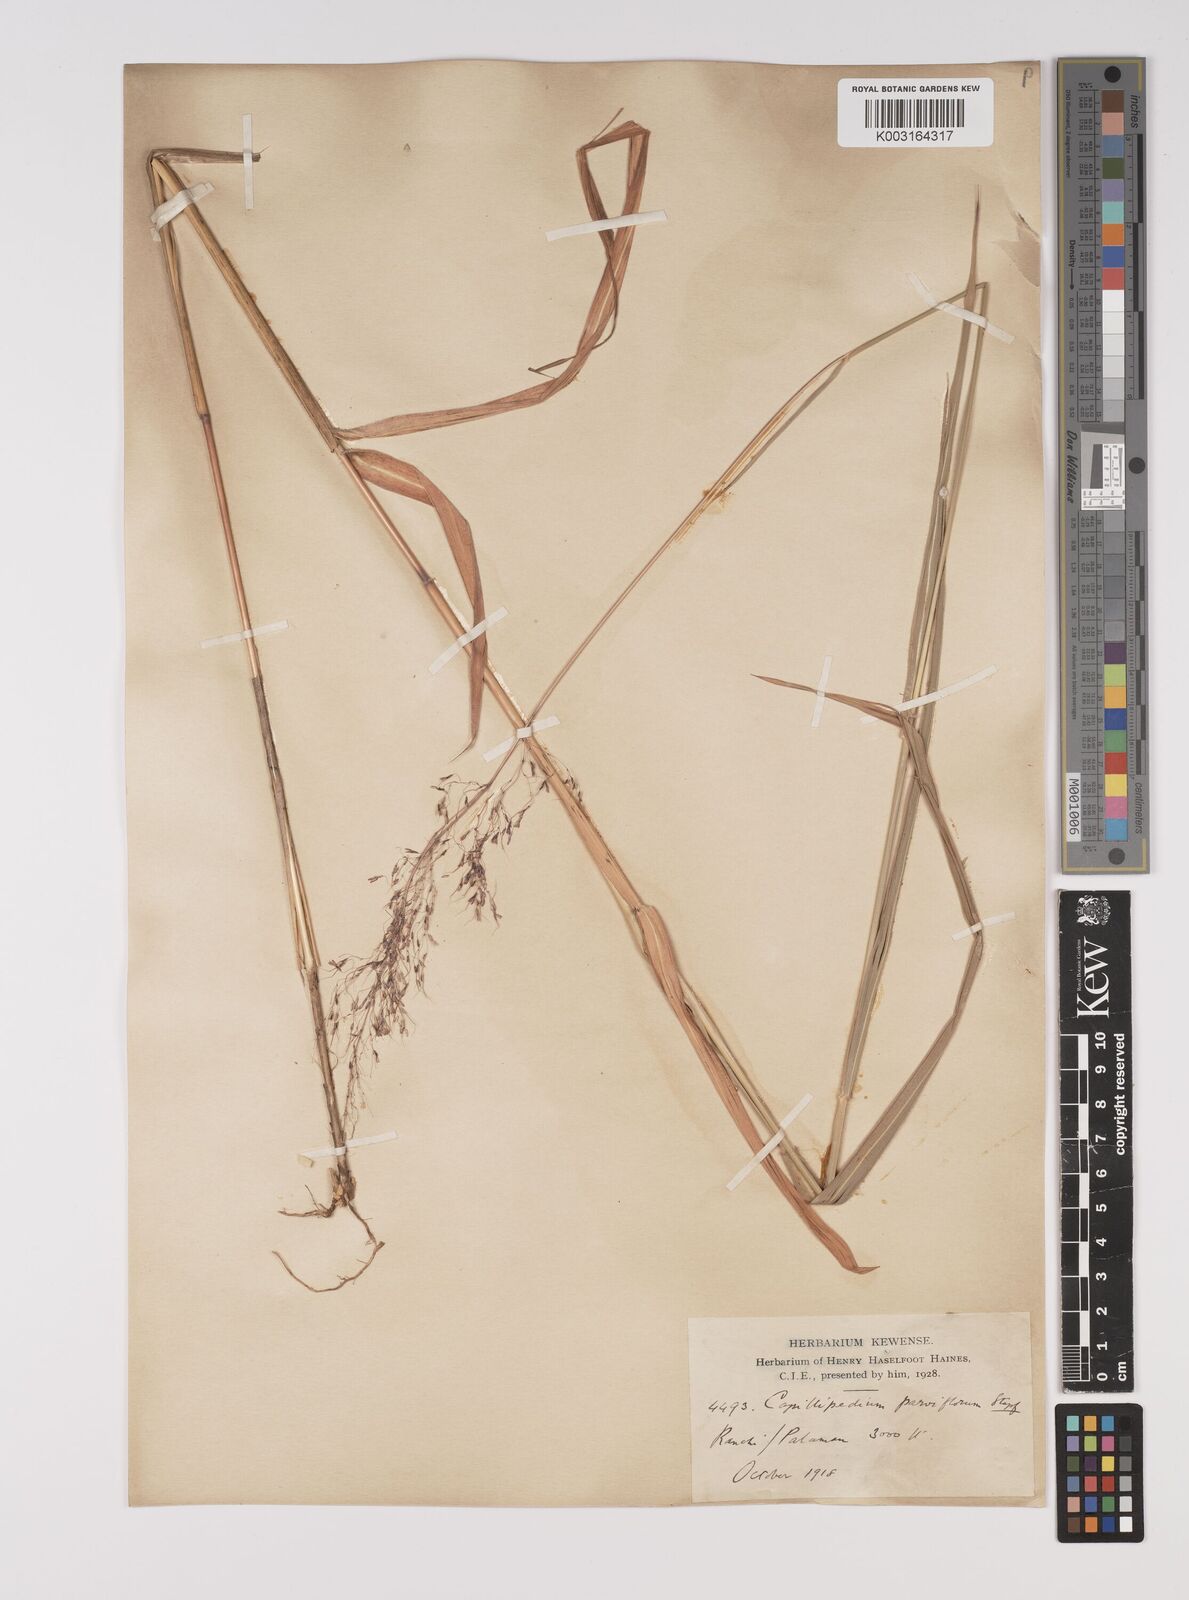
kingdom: Plantae
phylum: Tracheophyta
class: Liliopsida
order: Poales
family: Poaceae
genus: Capillipedium
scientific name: Capillipedium parviflorum
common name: Golden-beard
